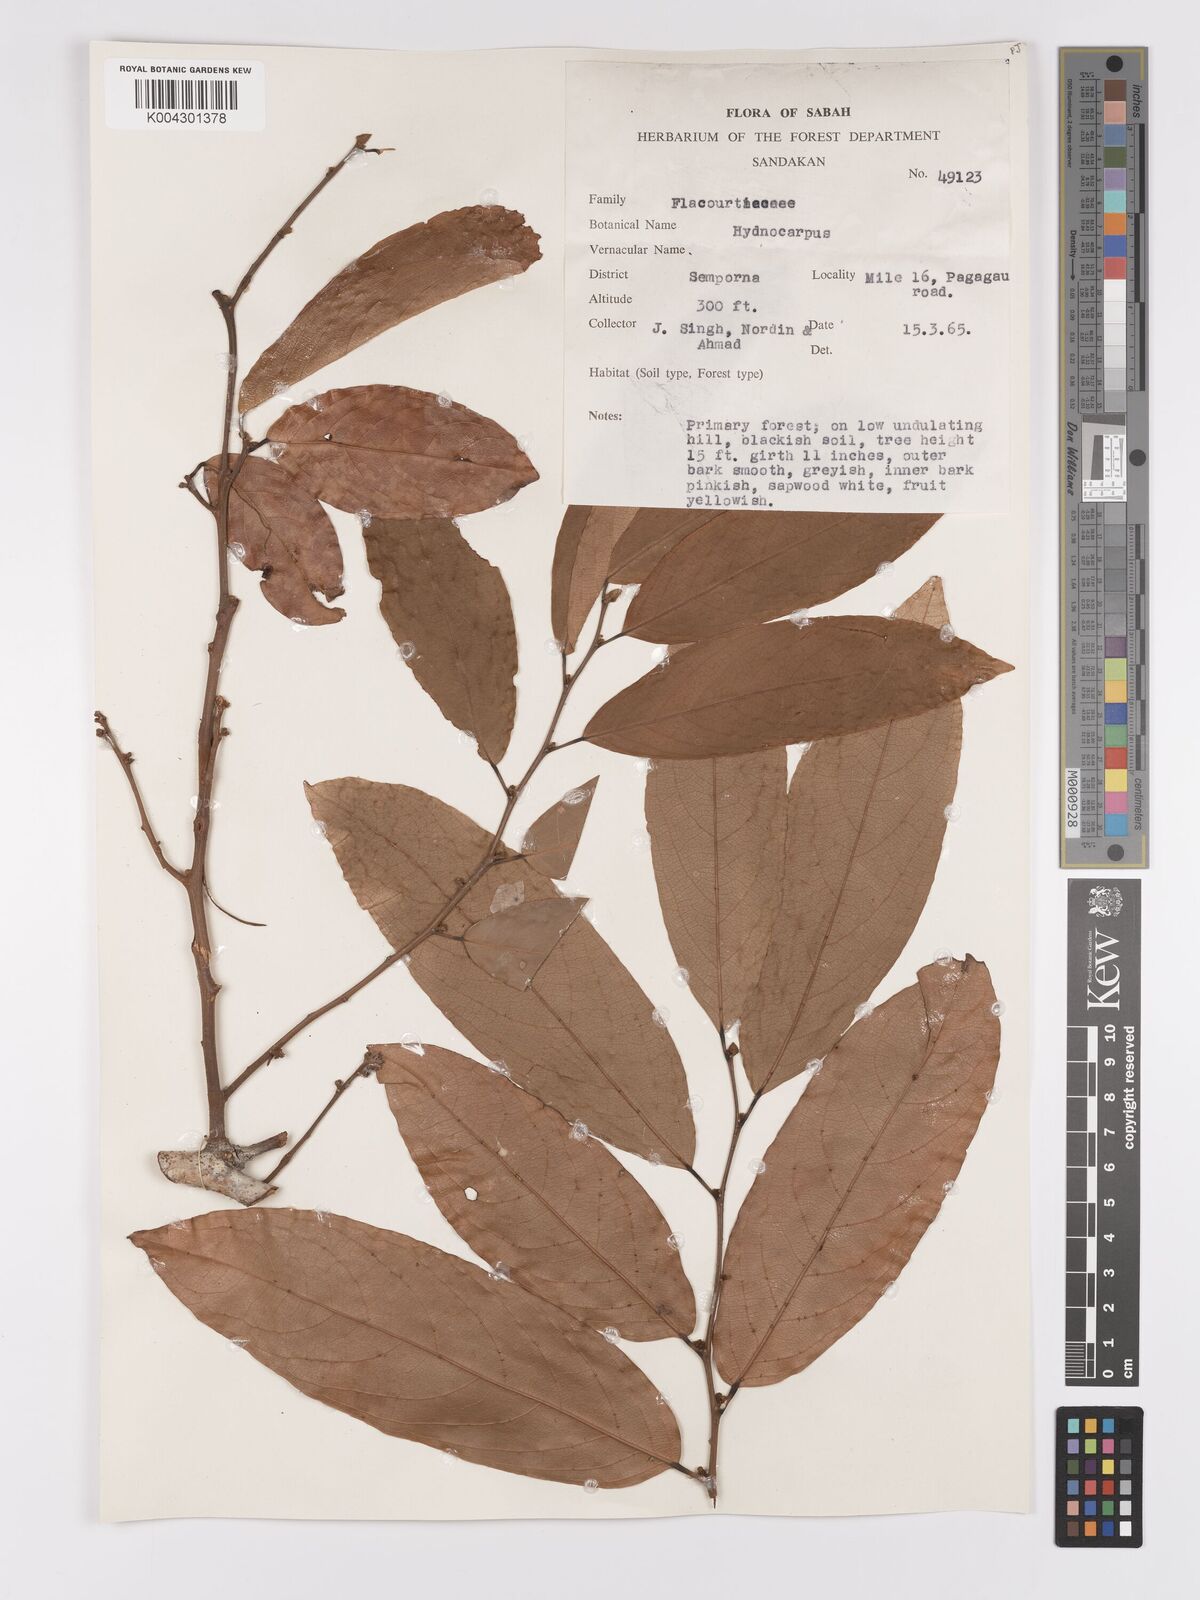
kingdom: Plantae
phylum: Tracheophyta
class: Magnoliopsida
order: Malpighiales
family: Achariaceae
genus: Hydnocarpus
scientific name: Hydnocarpus
